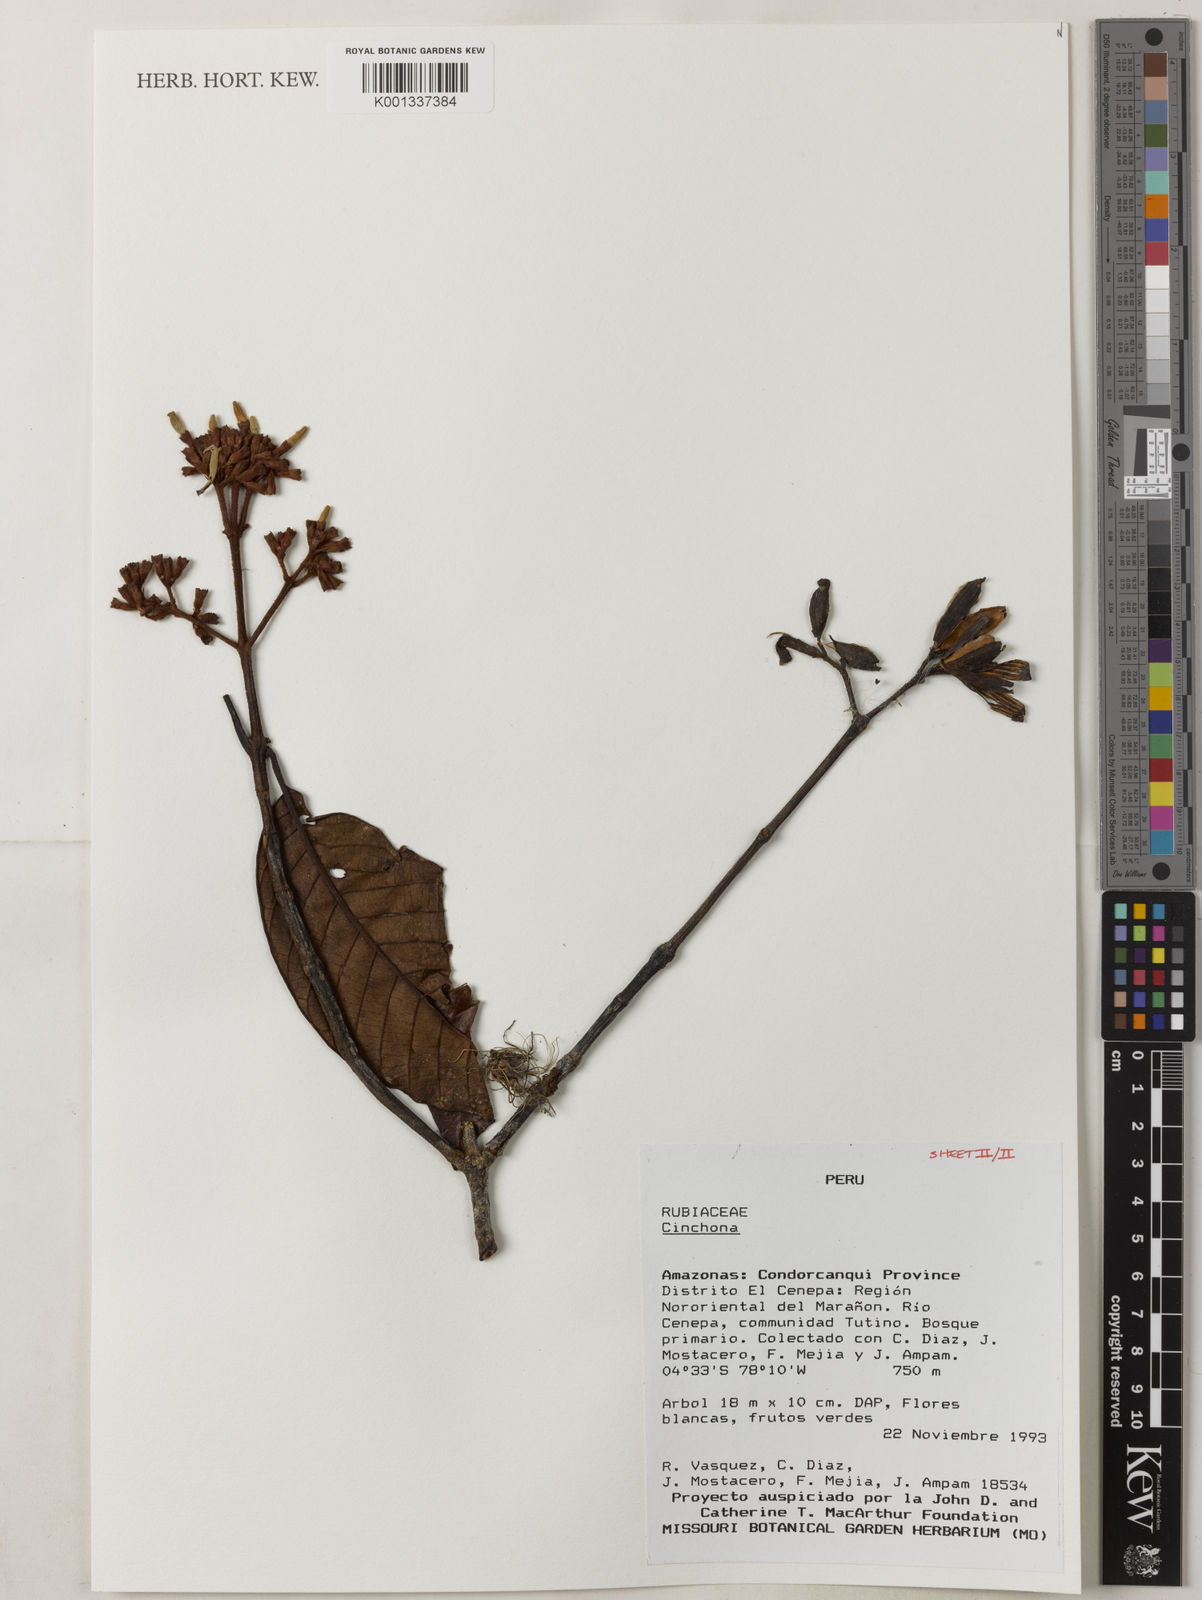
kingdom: Plantae
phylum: Tracheophyta
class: Magnoliopsida
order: Gentianales
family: Rubiaceae
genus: Cinchona
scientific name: Cinchona
